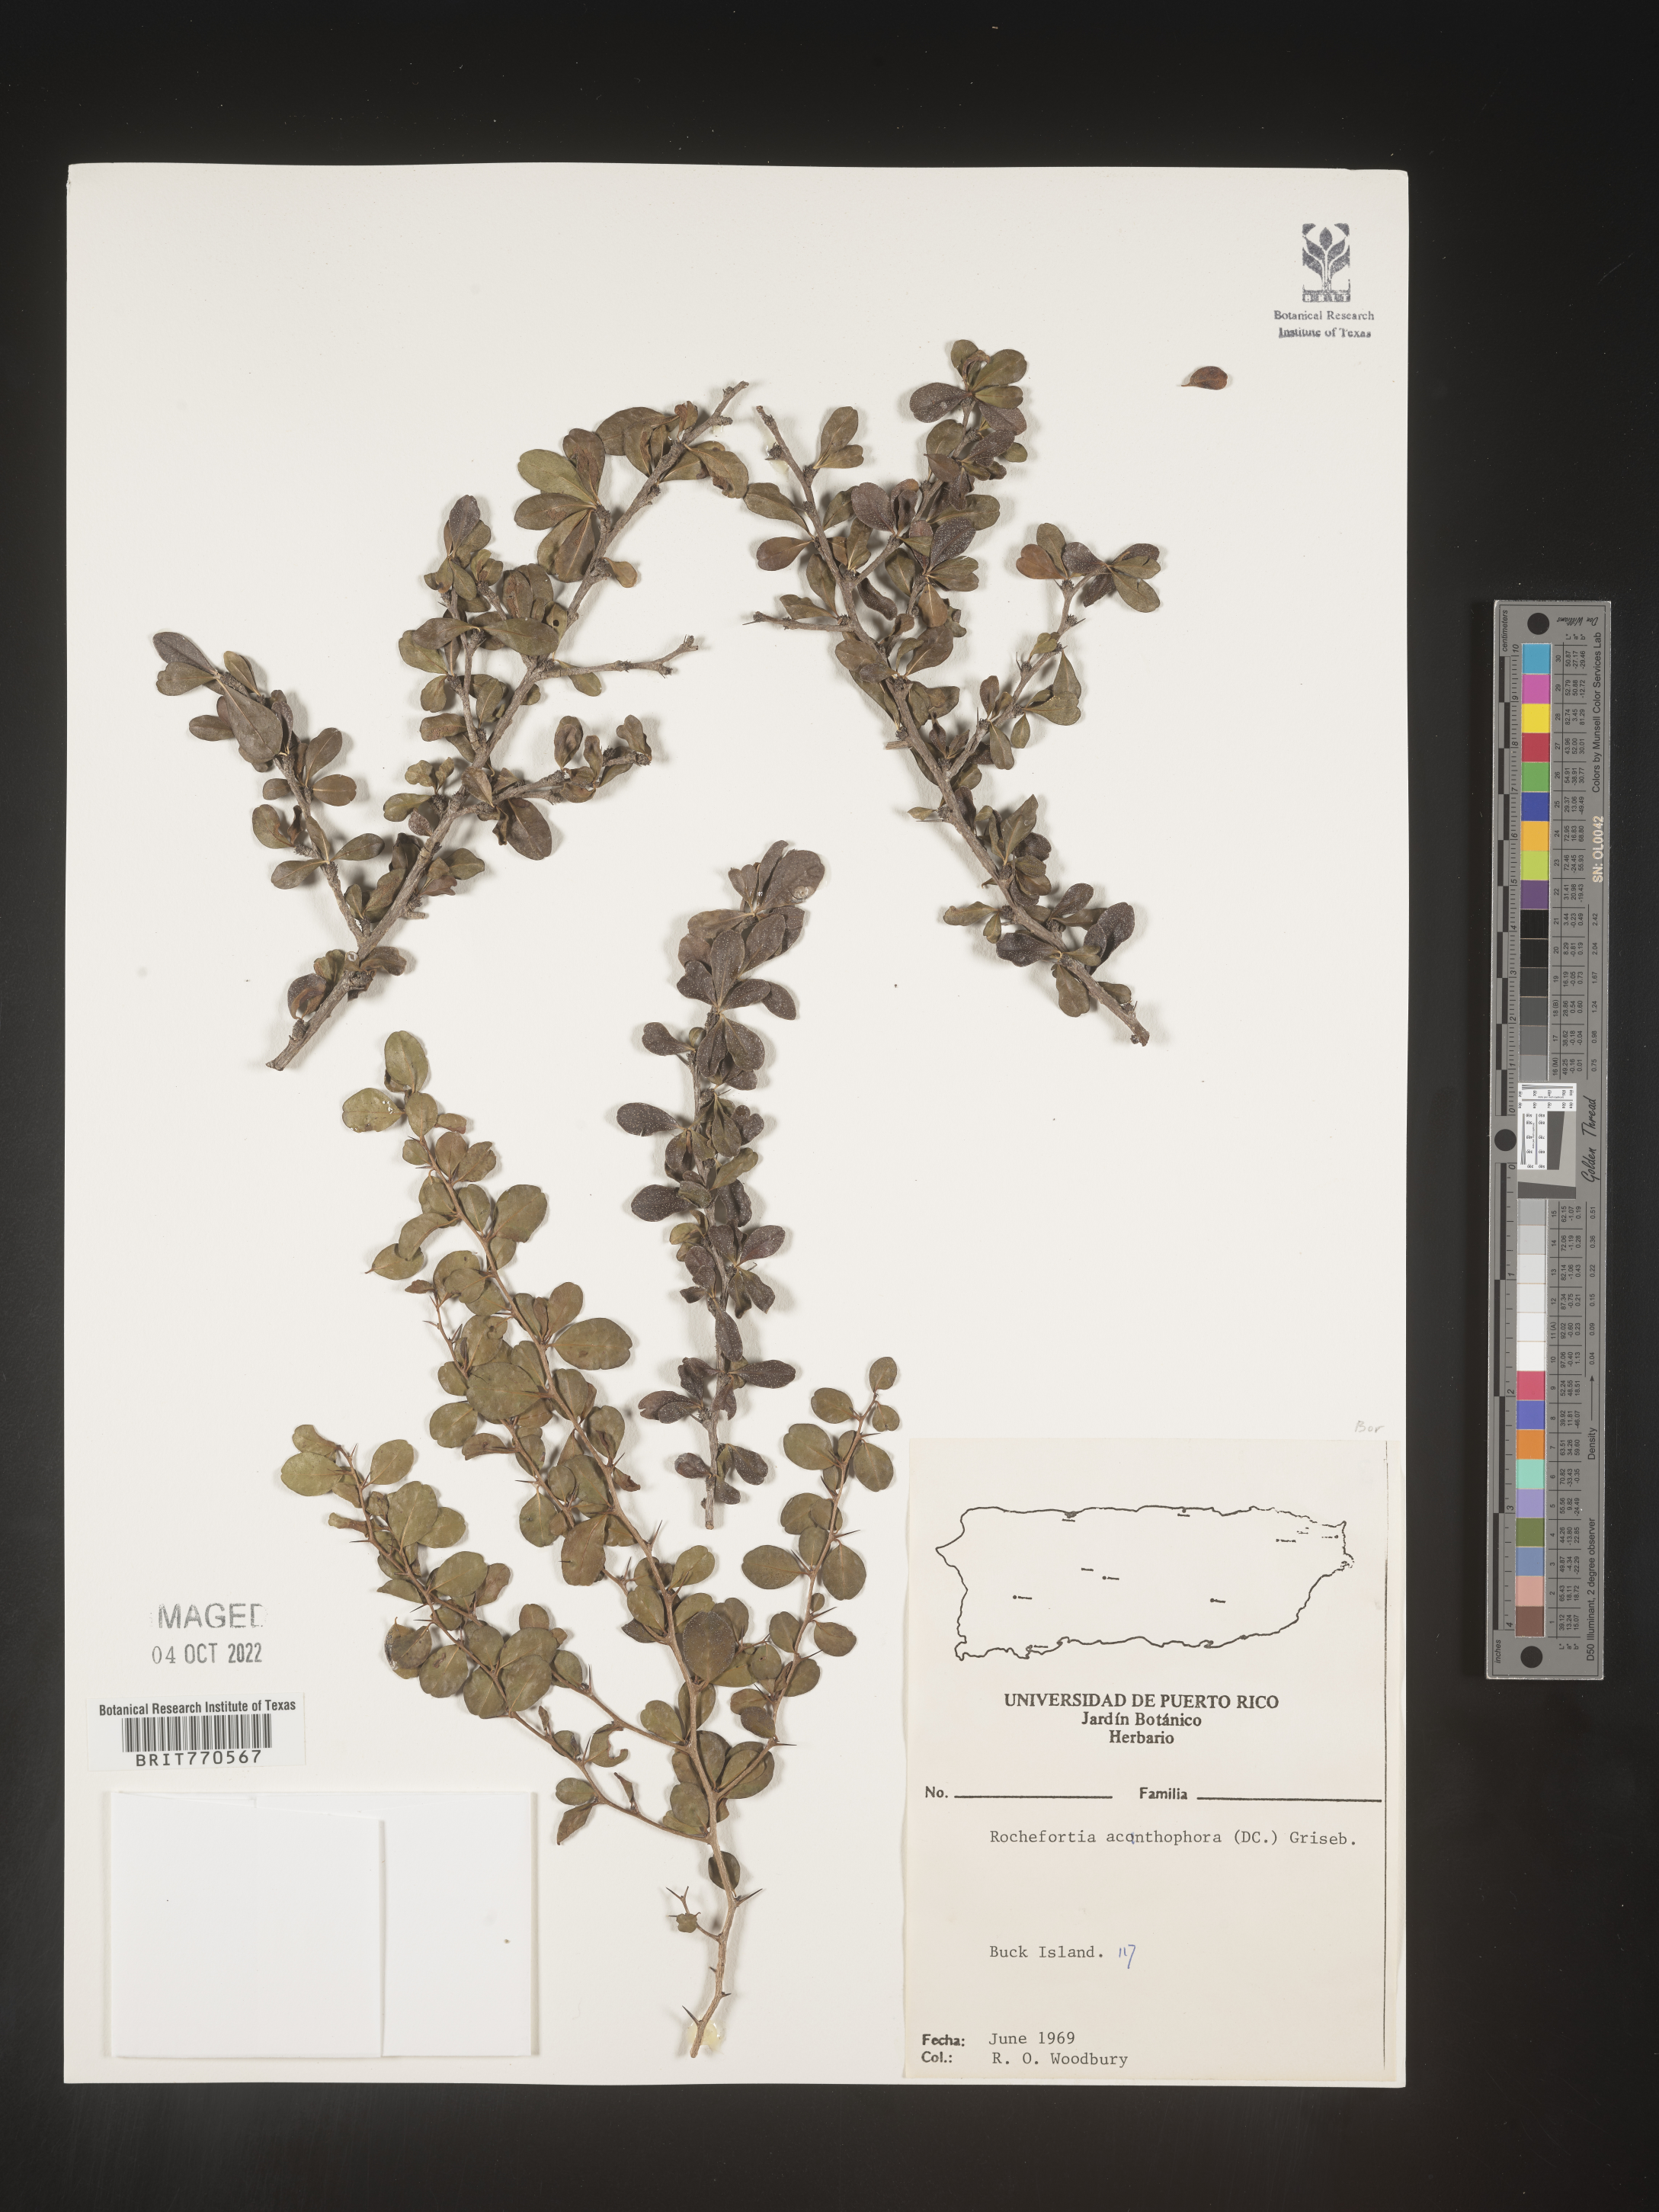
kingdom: Plantae
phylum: Tracheophyta
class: Magnoliopsida
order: Boraginales
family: Ehretiaceae
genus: Rochefortia
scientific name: Rochefortia
